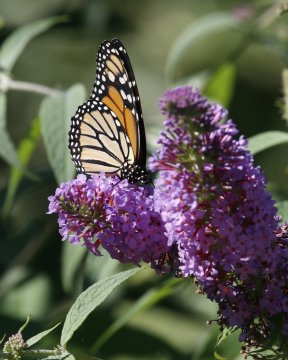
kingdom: Animalia
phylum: Arthropoda
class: Insecta
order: Lepidoptera
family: Nymphalidae
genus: Danaus
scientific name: Danaus plexippus
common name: Monarch
